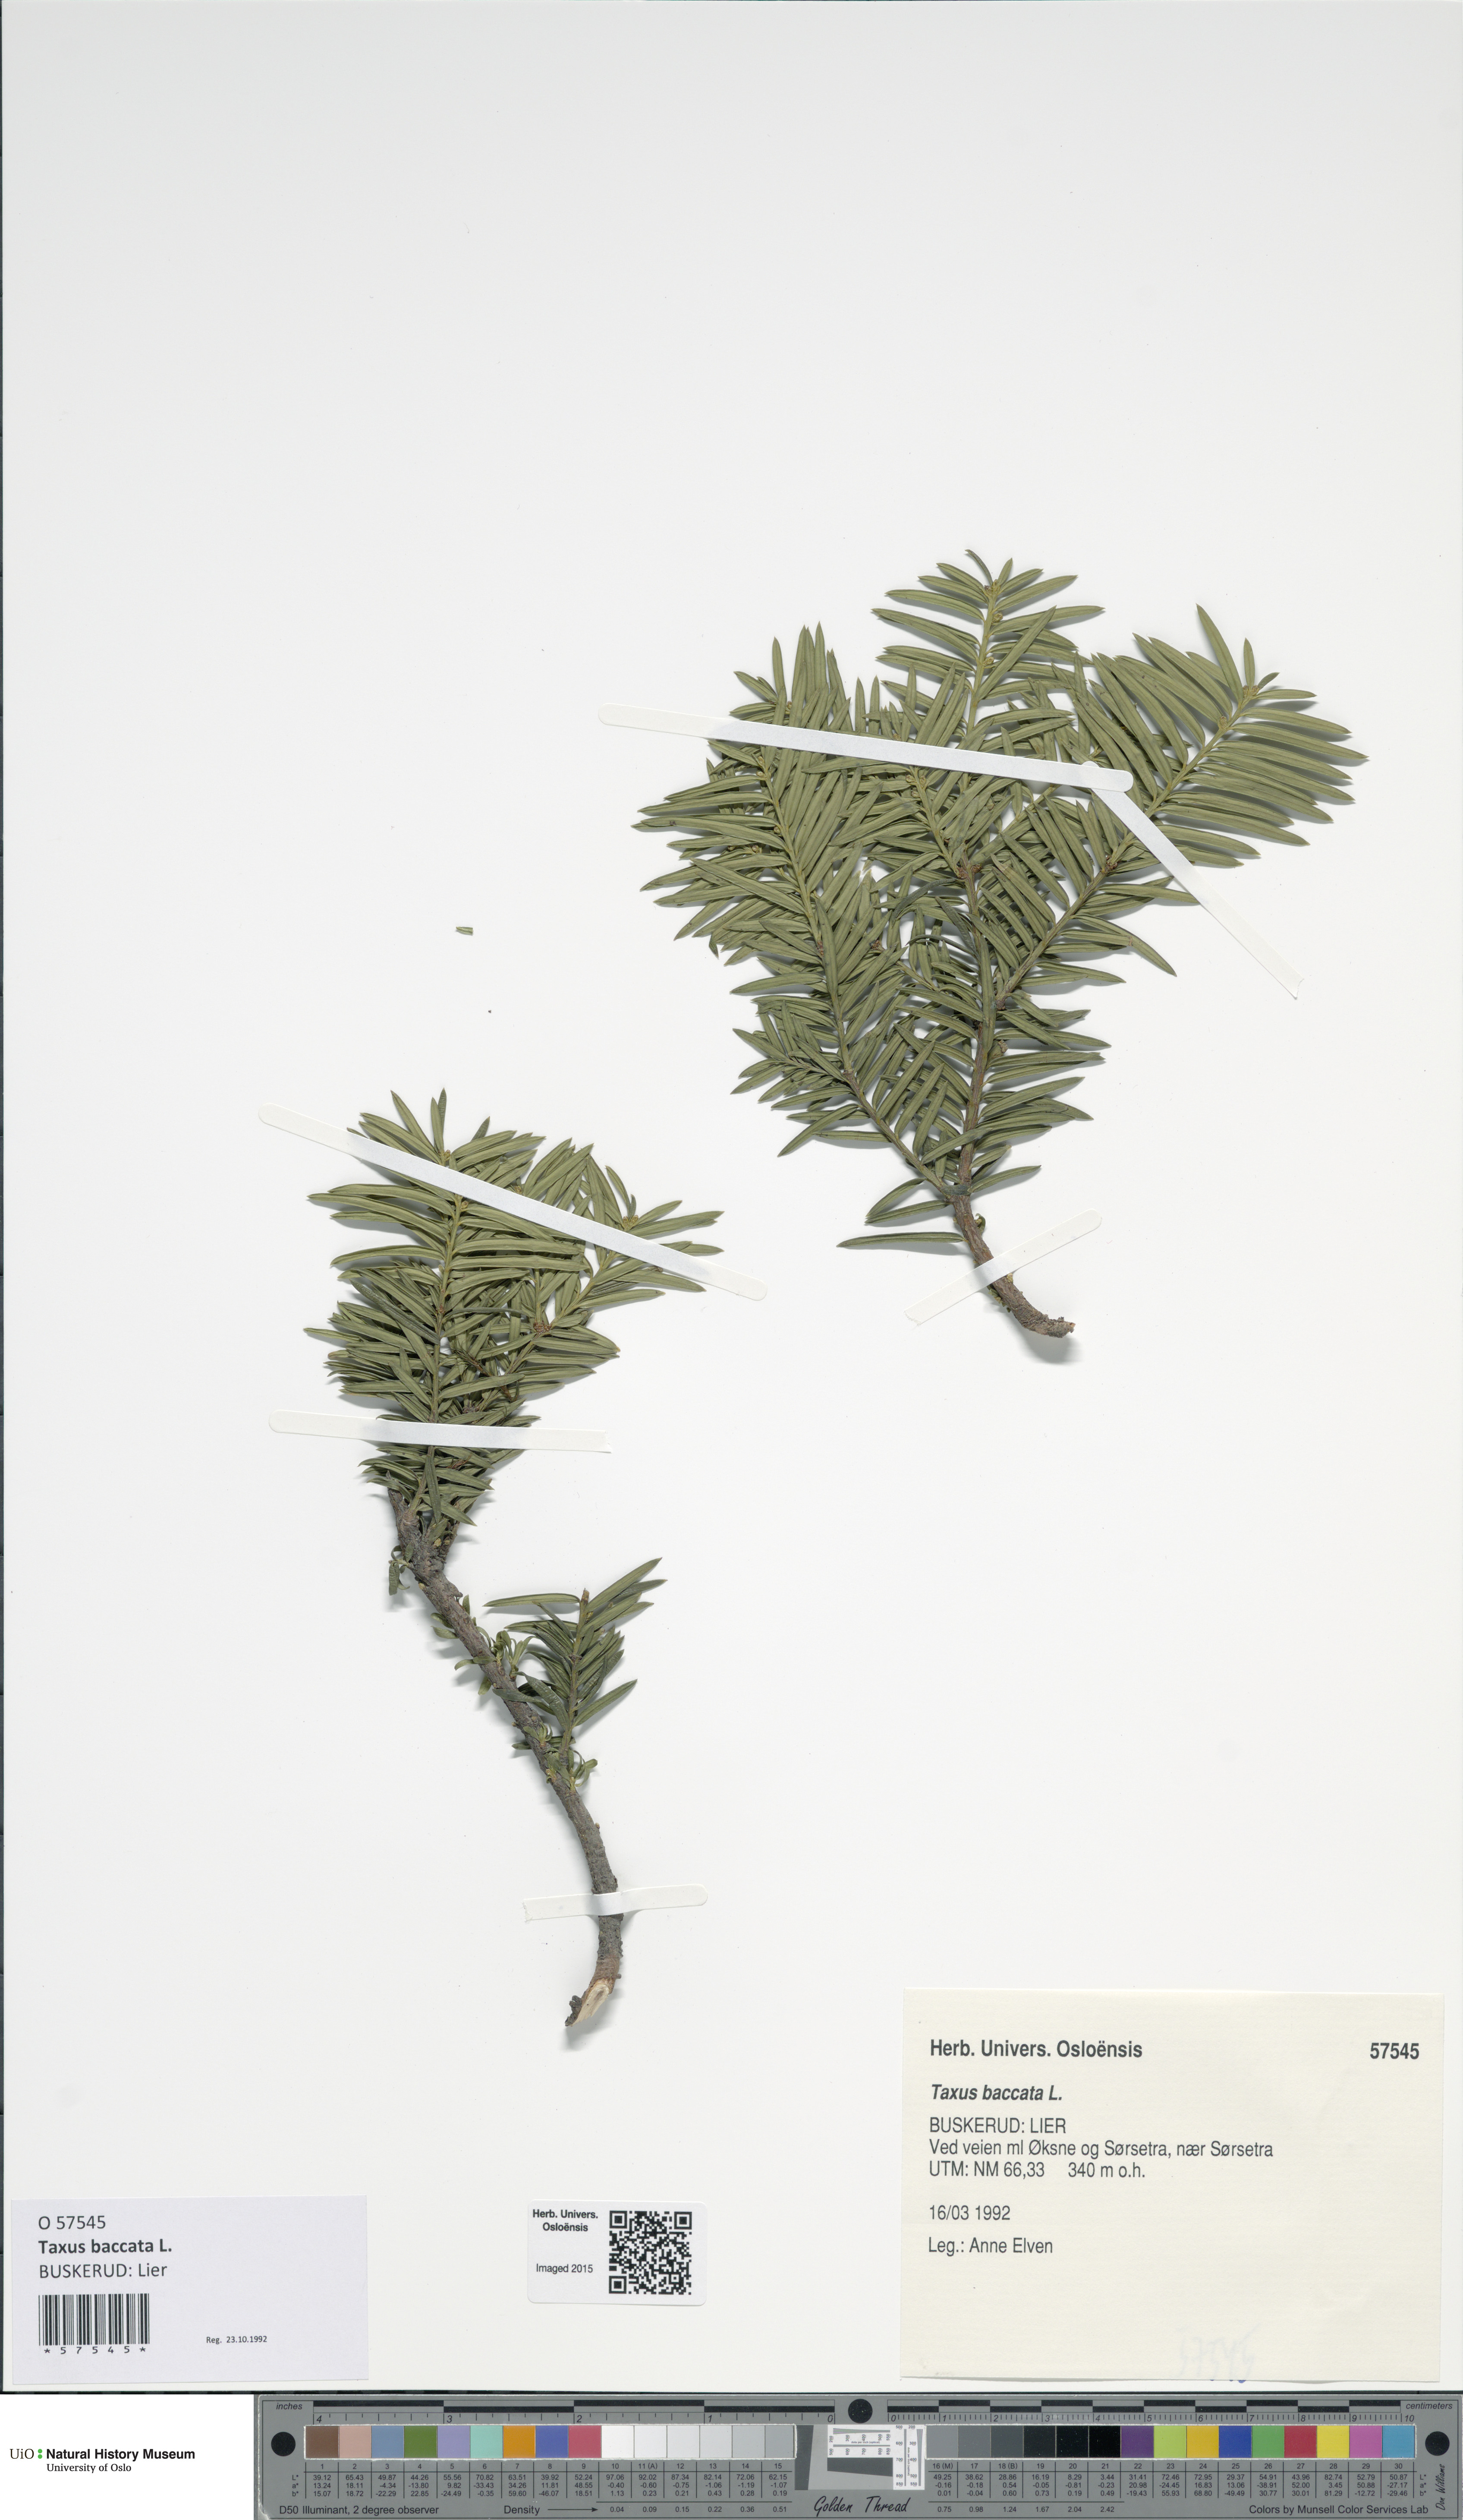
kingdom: Plantae
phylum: Tracheophyta
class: Pinopsida
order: Pinales
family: Taxaceae
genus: Taxus
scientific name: Taxus baccata
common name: Yew
